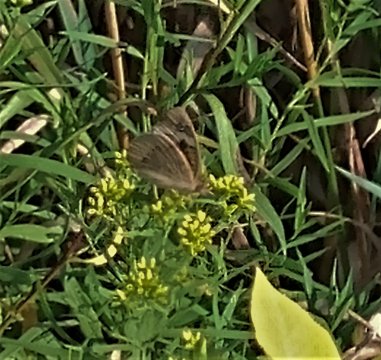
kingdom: Animalia
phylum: Arthropoda
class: Insecta
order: Lepidoptera
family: Nymphalidae
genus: Junonia
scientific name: Junonia coenia
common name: Common Buckeye
